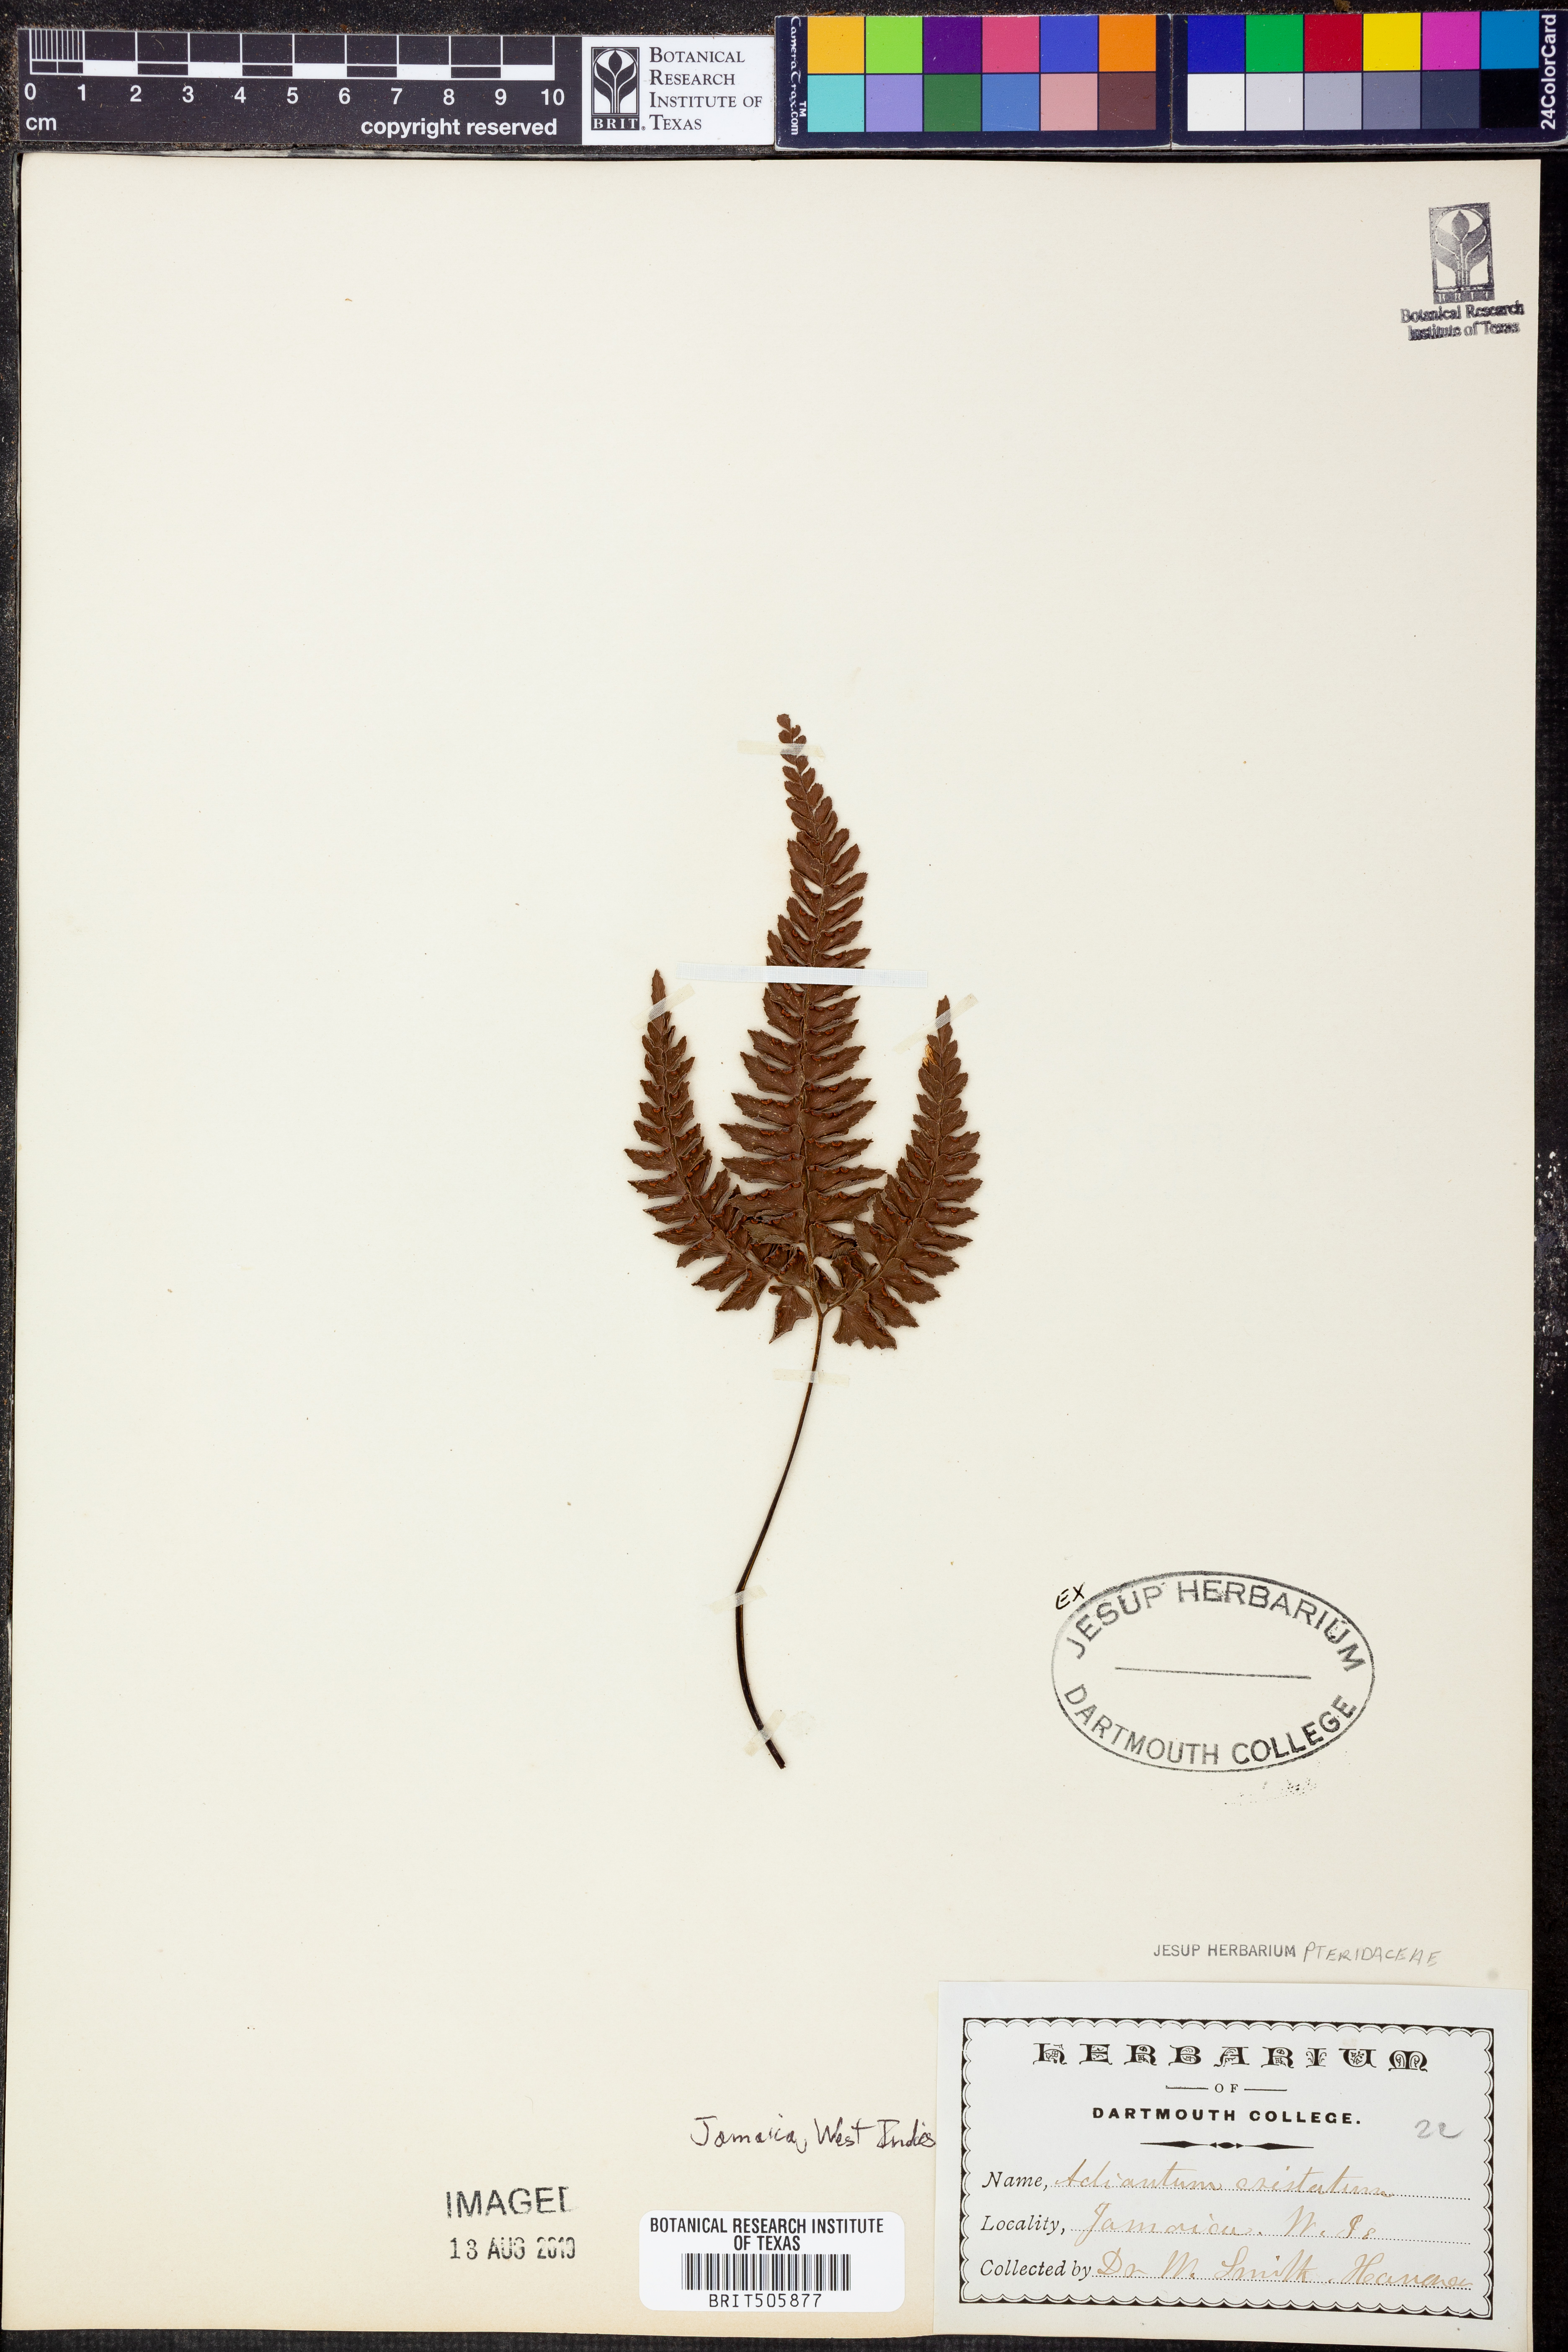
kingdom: Plantae
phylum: Tracheophyta
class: Polypodiopsida
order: Polypodiales
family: Pteridaceae
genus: Adiantum
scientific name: Adiantum pyramidale
